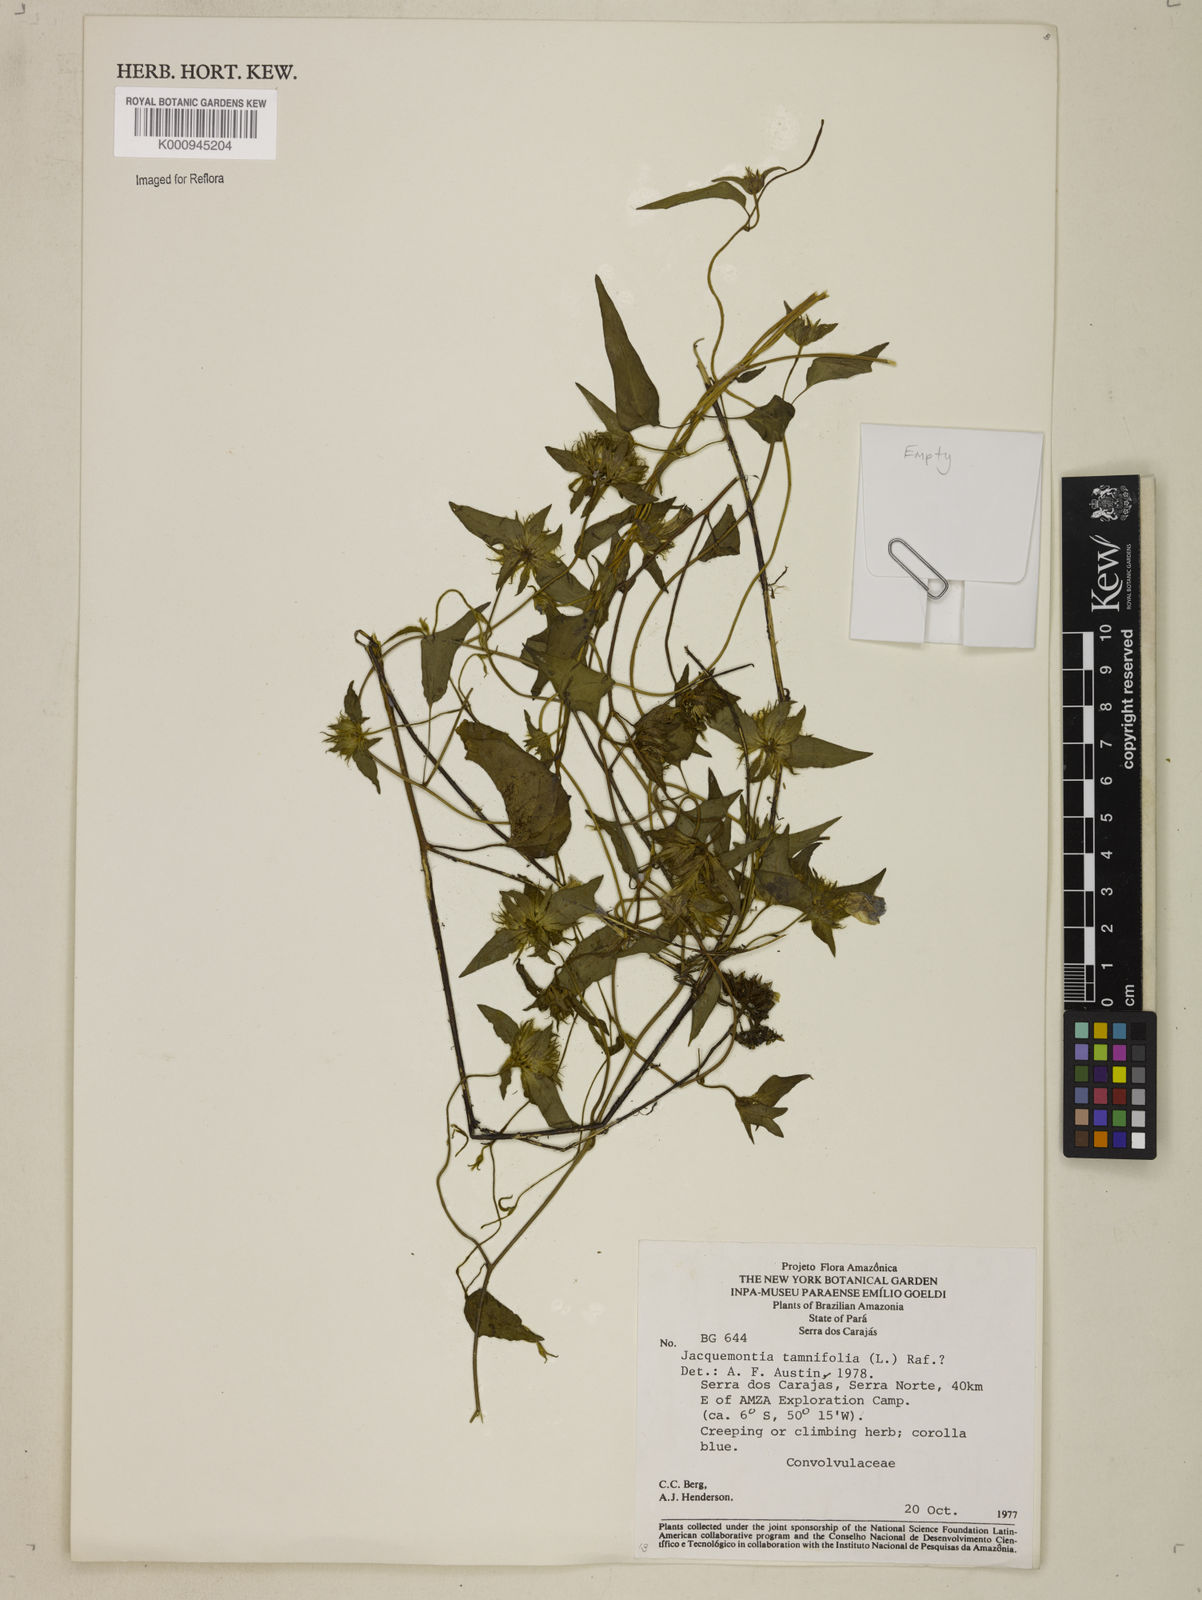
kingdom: Plantae
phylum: Tracheophyta
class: Magnoliopsida
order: Solanales
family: Convolvulaceae
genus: Jacquemontia
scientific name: Jacquemontia tamnifolia
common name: Hairy clustervine
